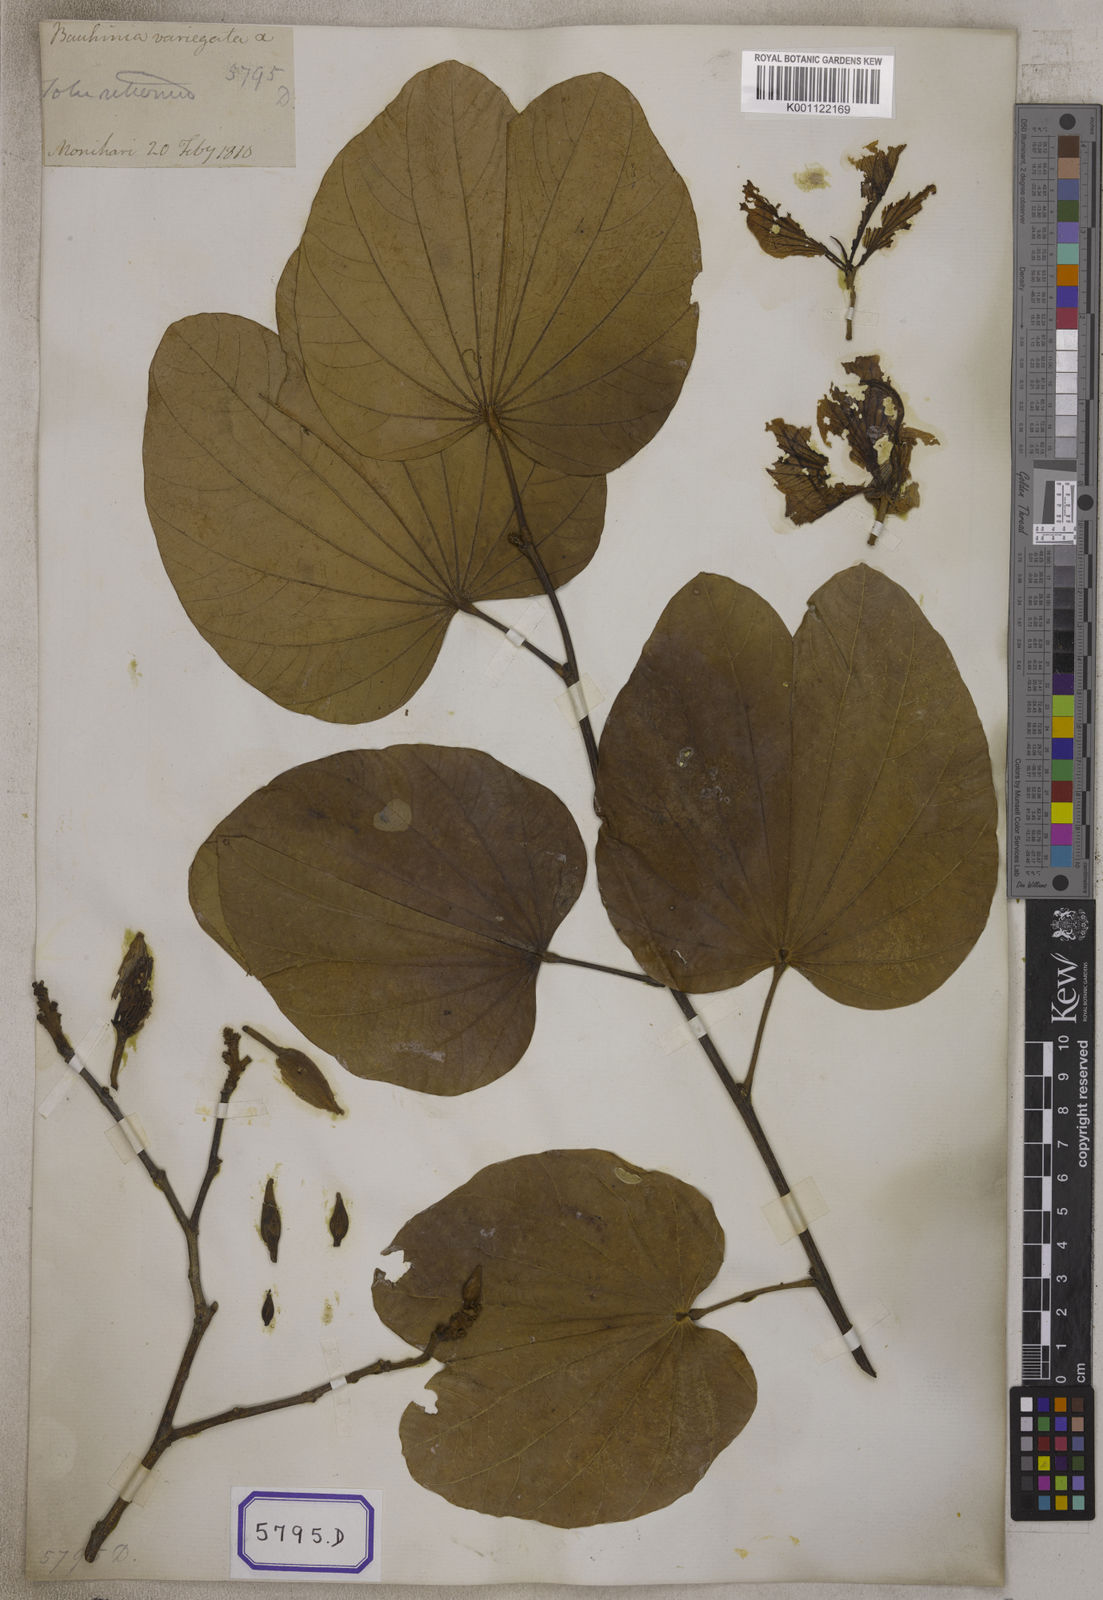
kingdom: Plantae
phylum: Tracheophyta
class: Magnoliopsida
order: Fabales
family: Fabaceae
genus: Bauhinia
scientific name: Bauhinia variegata
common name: Mountain ebony
